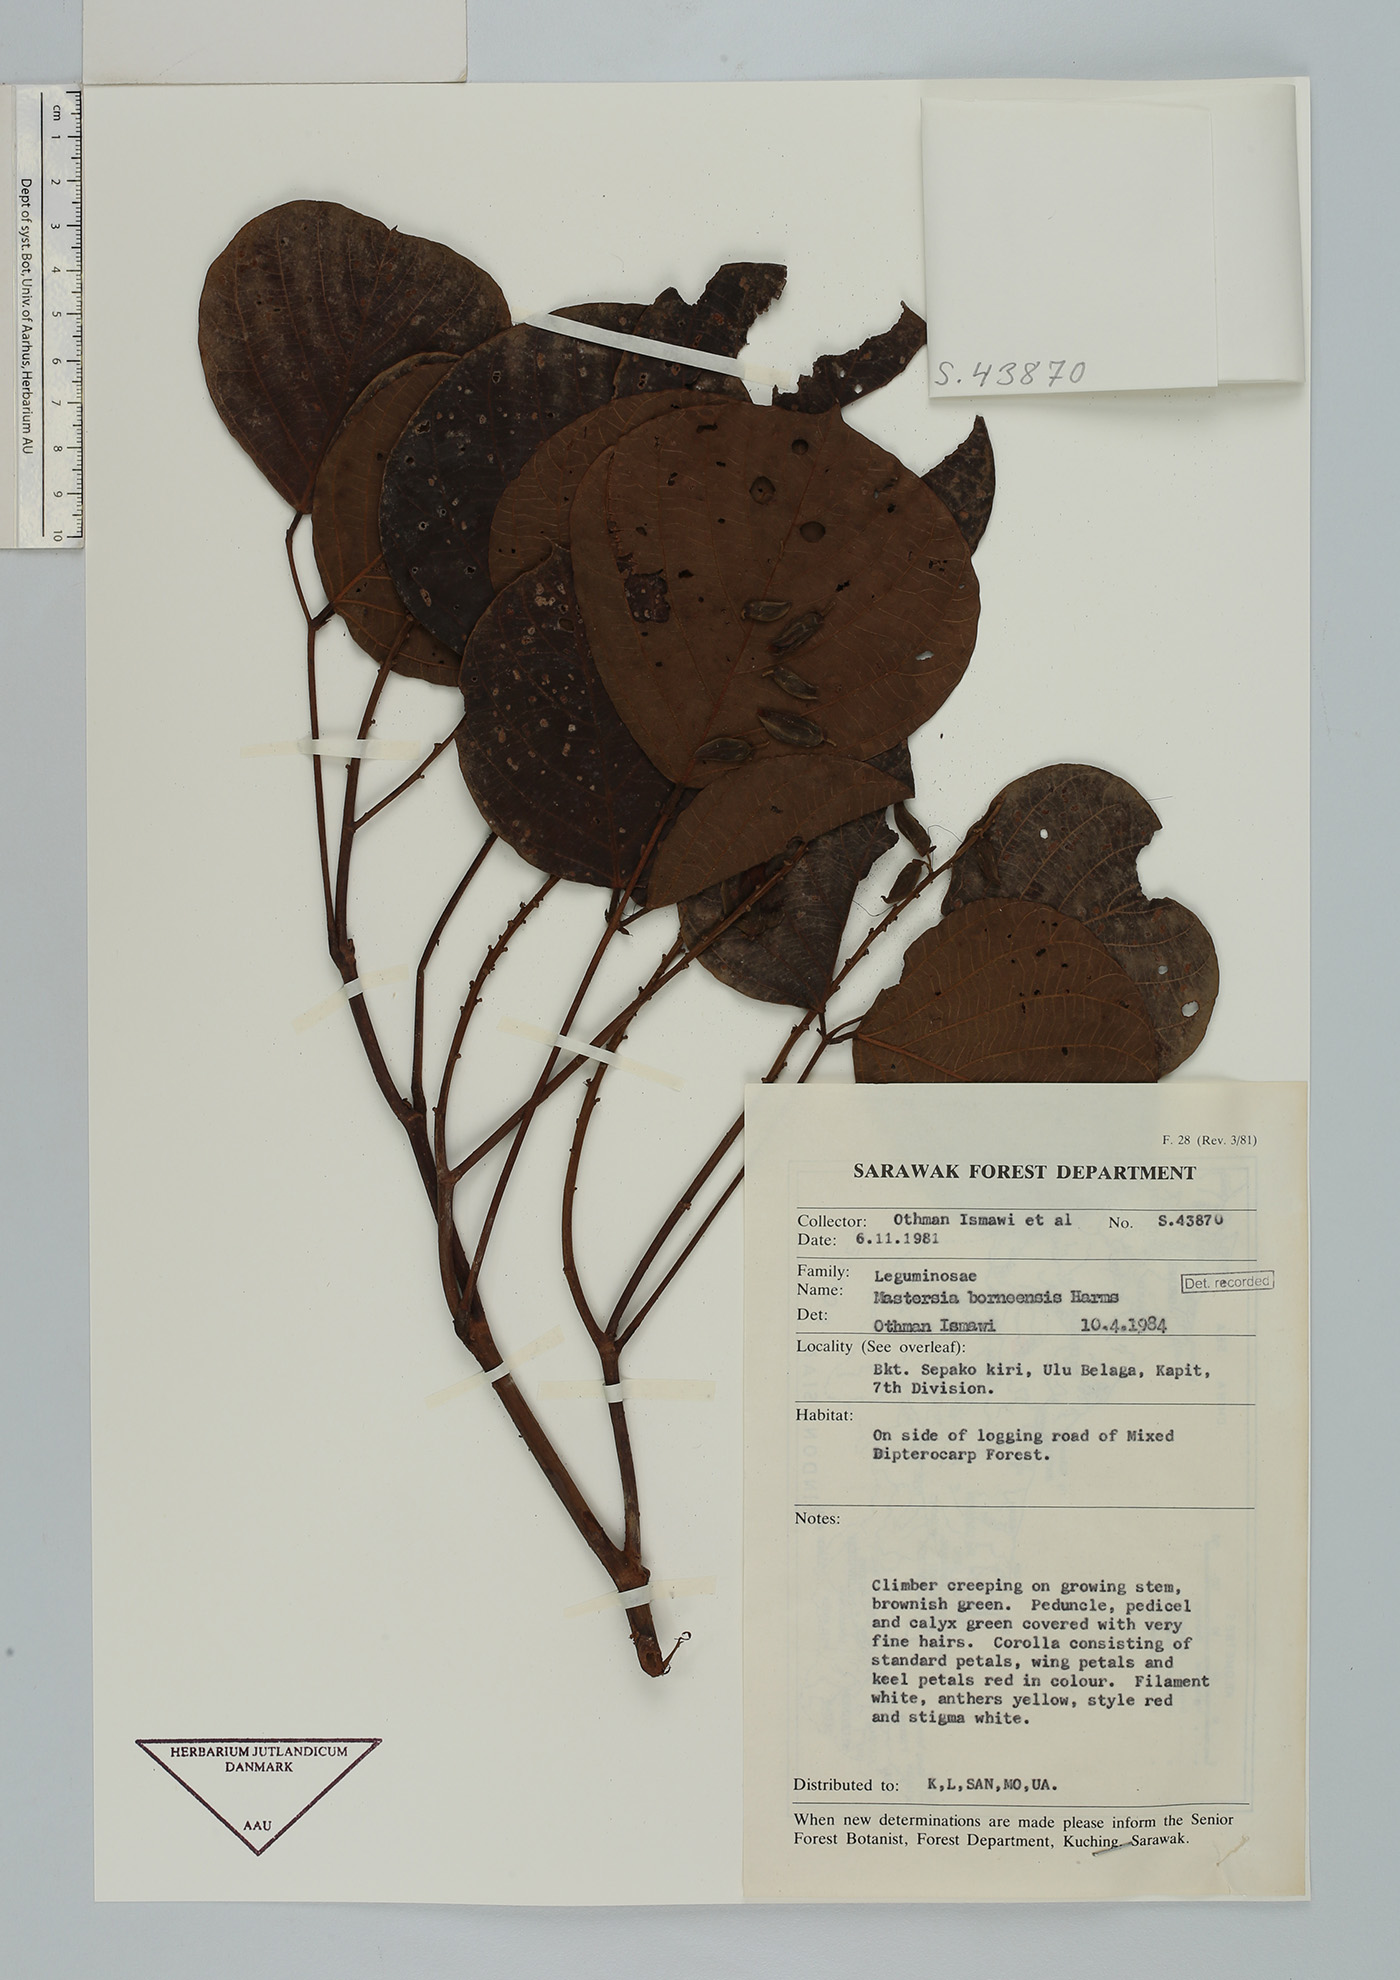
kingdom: Plantae
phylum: Tracheophyta
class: Magnoliopsida
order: Fabales
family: Fabaceae
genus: Mastersia
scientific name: Mastersia bakeri
